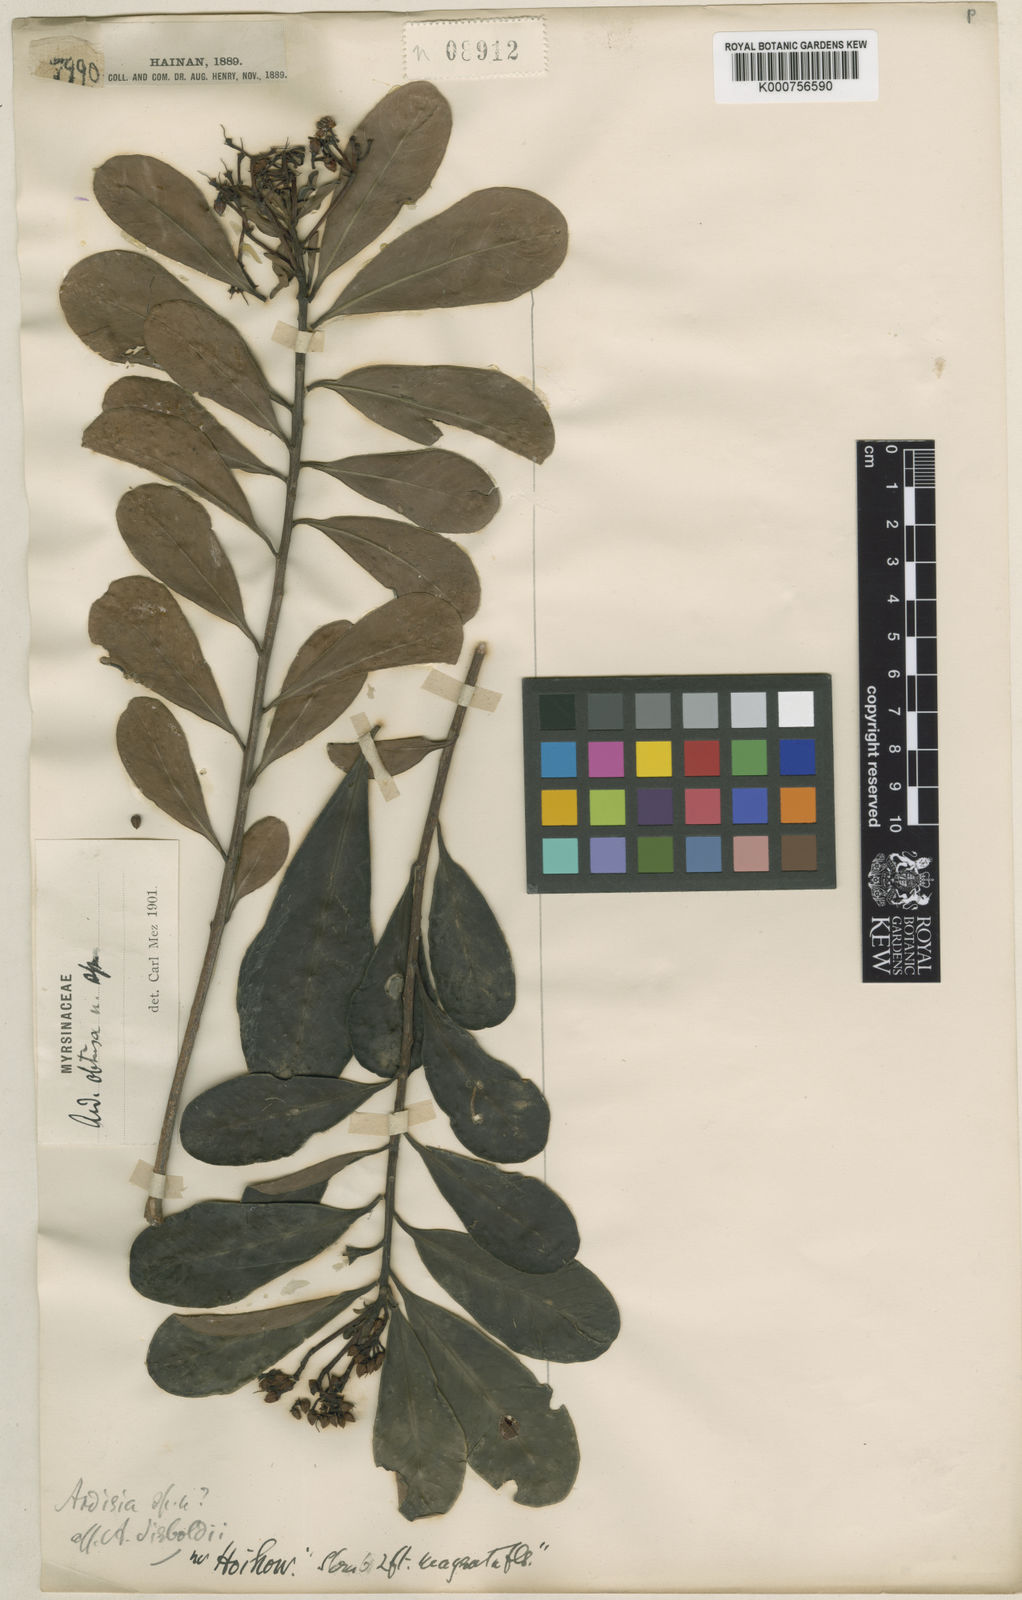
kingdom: Plantae
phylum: Tracheophyta
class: Magnoliopsida
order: Ericales
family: Primulaceae
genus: Ardisia
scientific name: Ardisia obtusa
